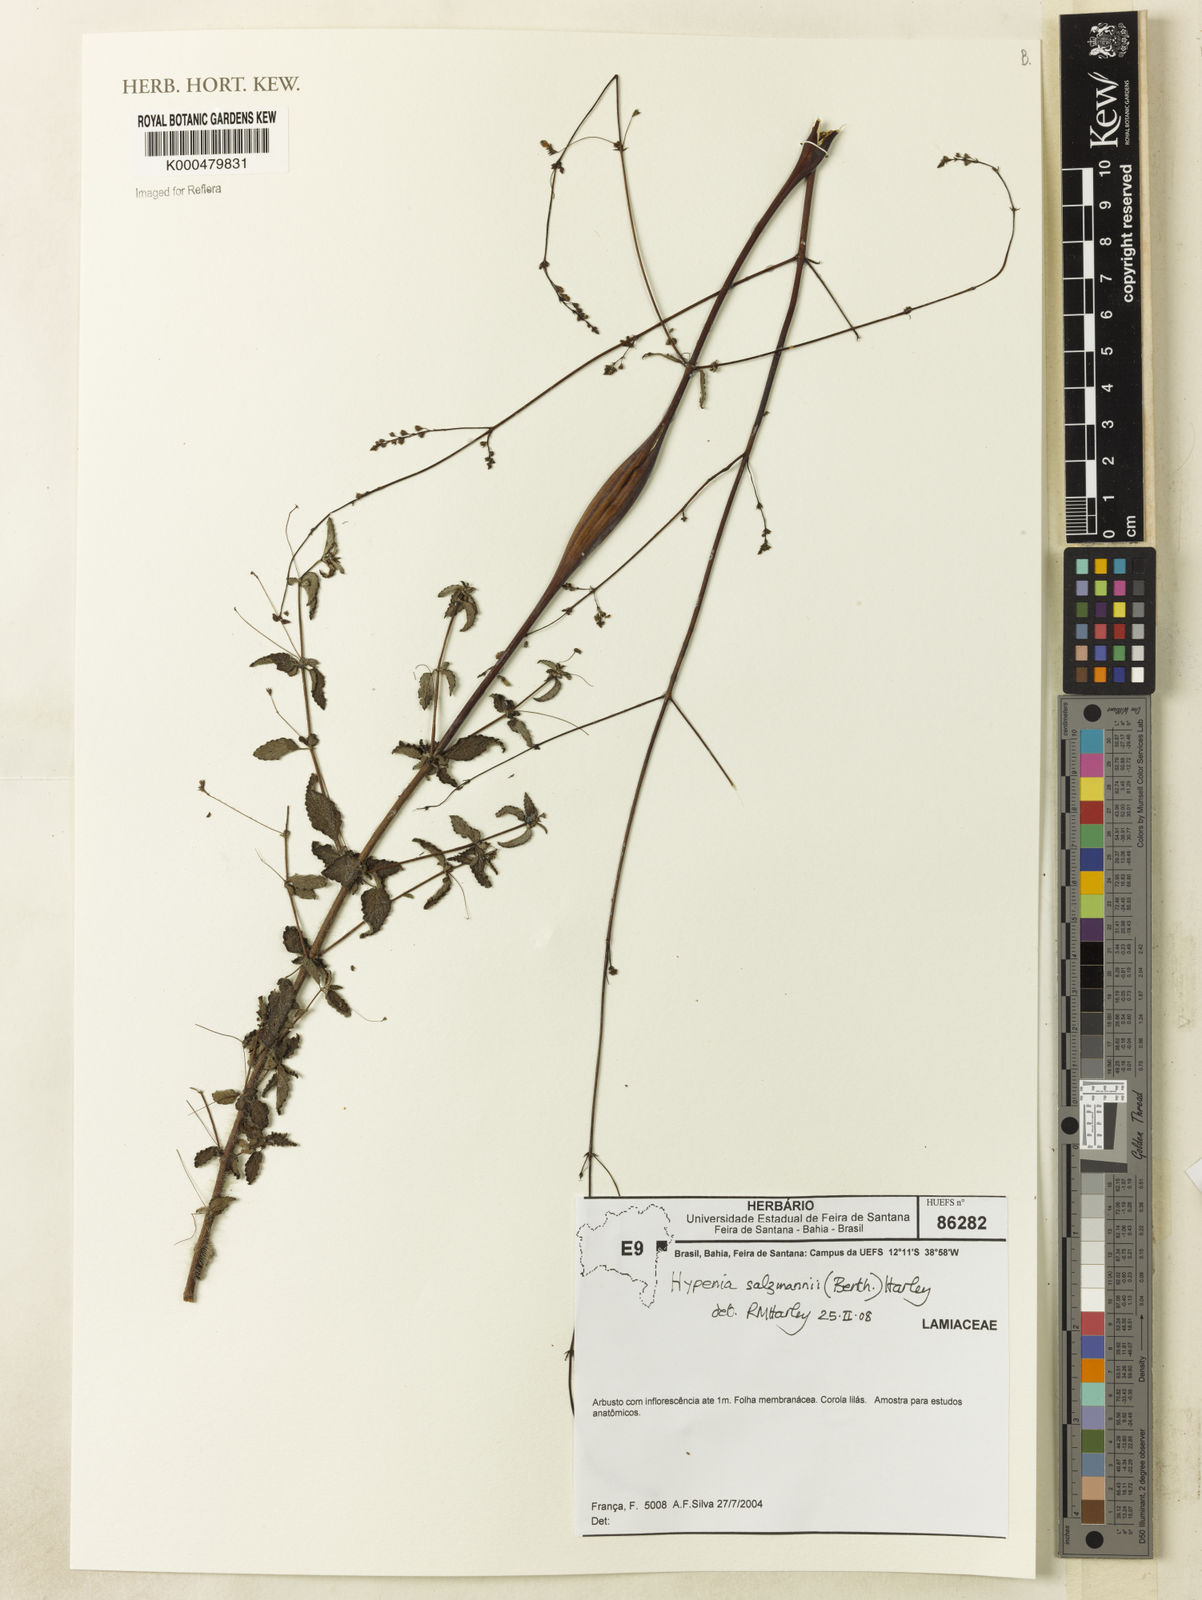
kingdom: Plantae
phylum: Tracheophyta
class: Magnoliopsida
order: Lamiales
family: Lamiaceae
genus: Hypenia
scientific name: Hypenia salzmannii
